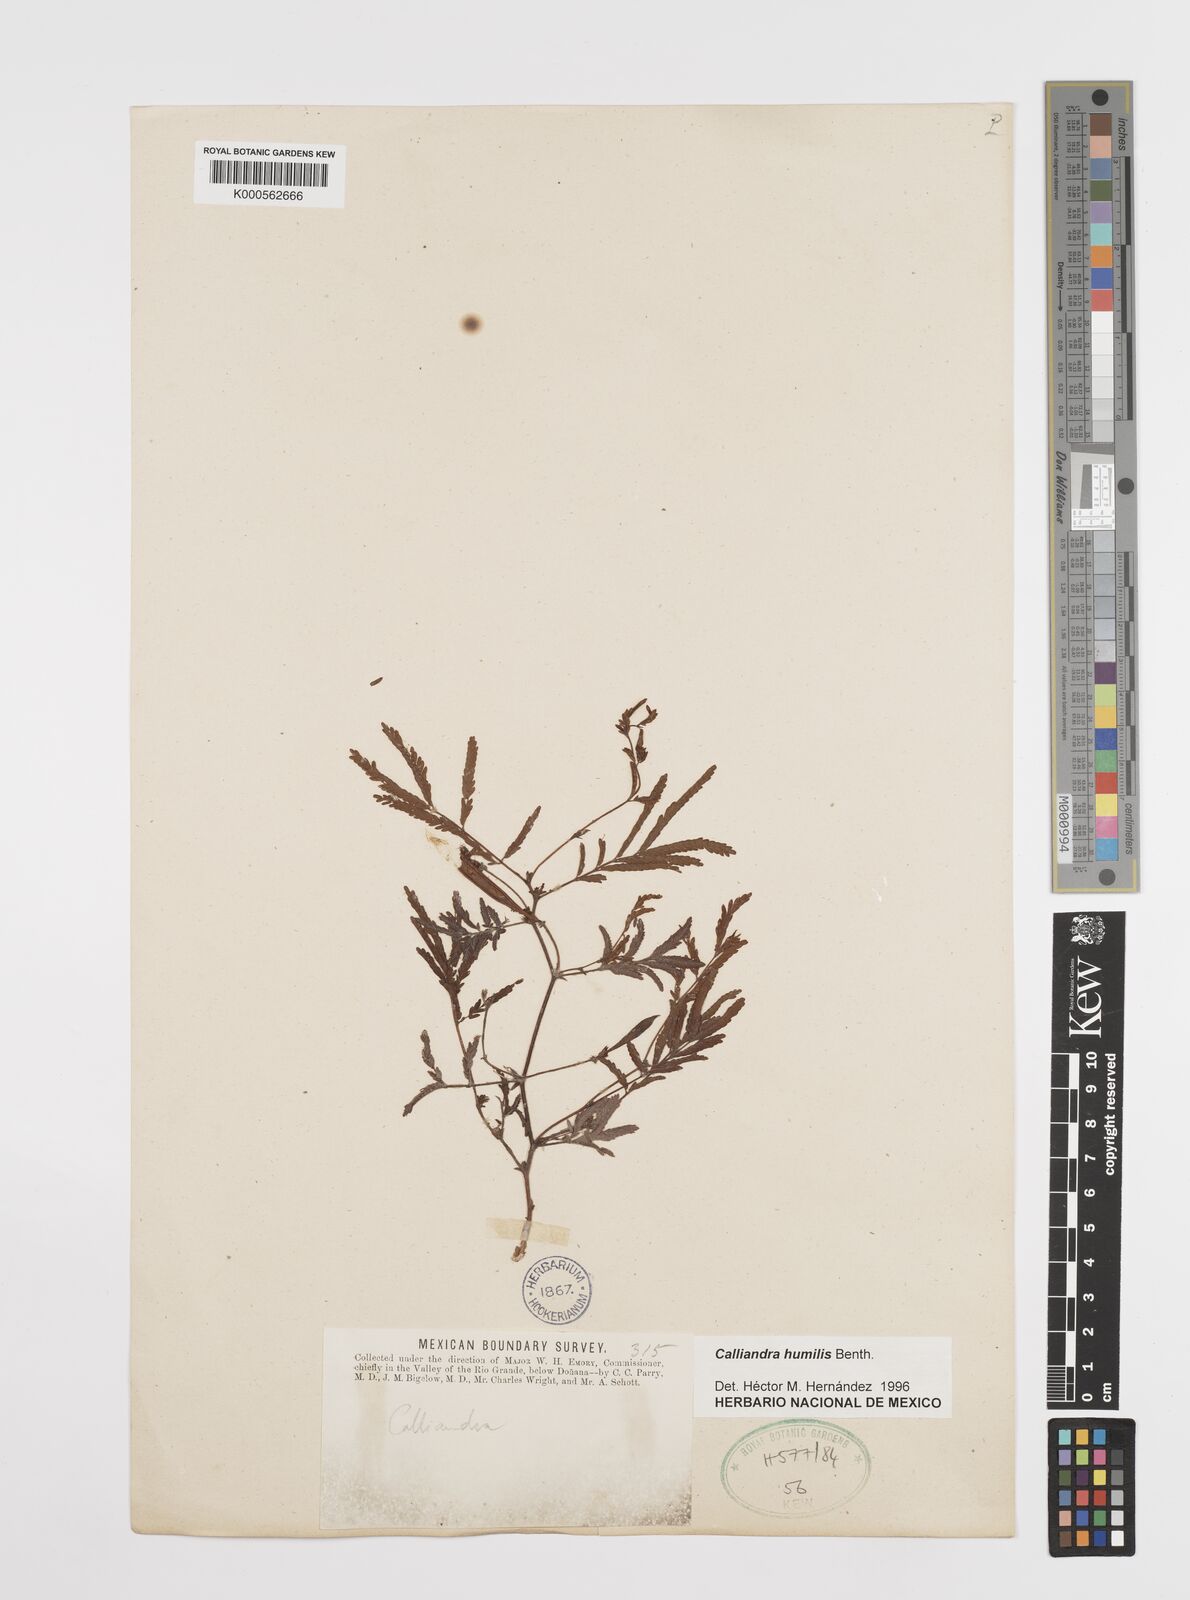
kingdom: Plantae
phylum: Tracheophyta
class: Magnoliopsida
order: Fabales
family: Fabaceae
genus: Calliandra
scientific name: Calliandra humilis
